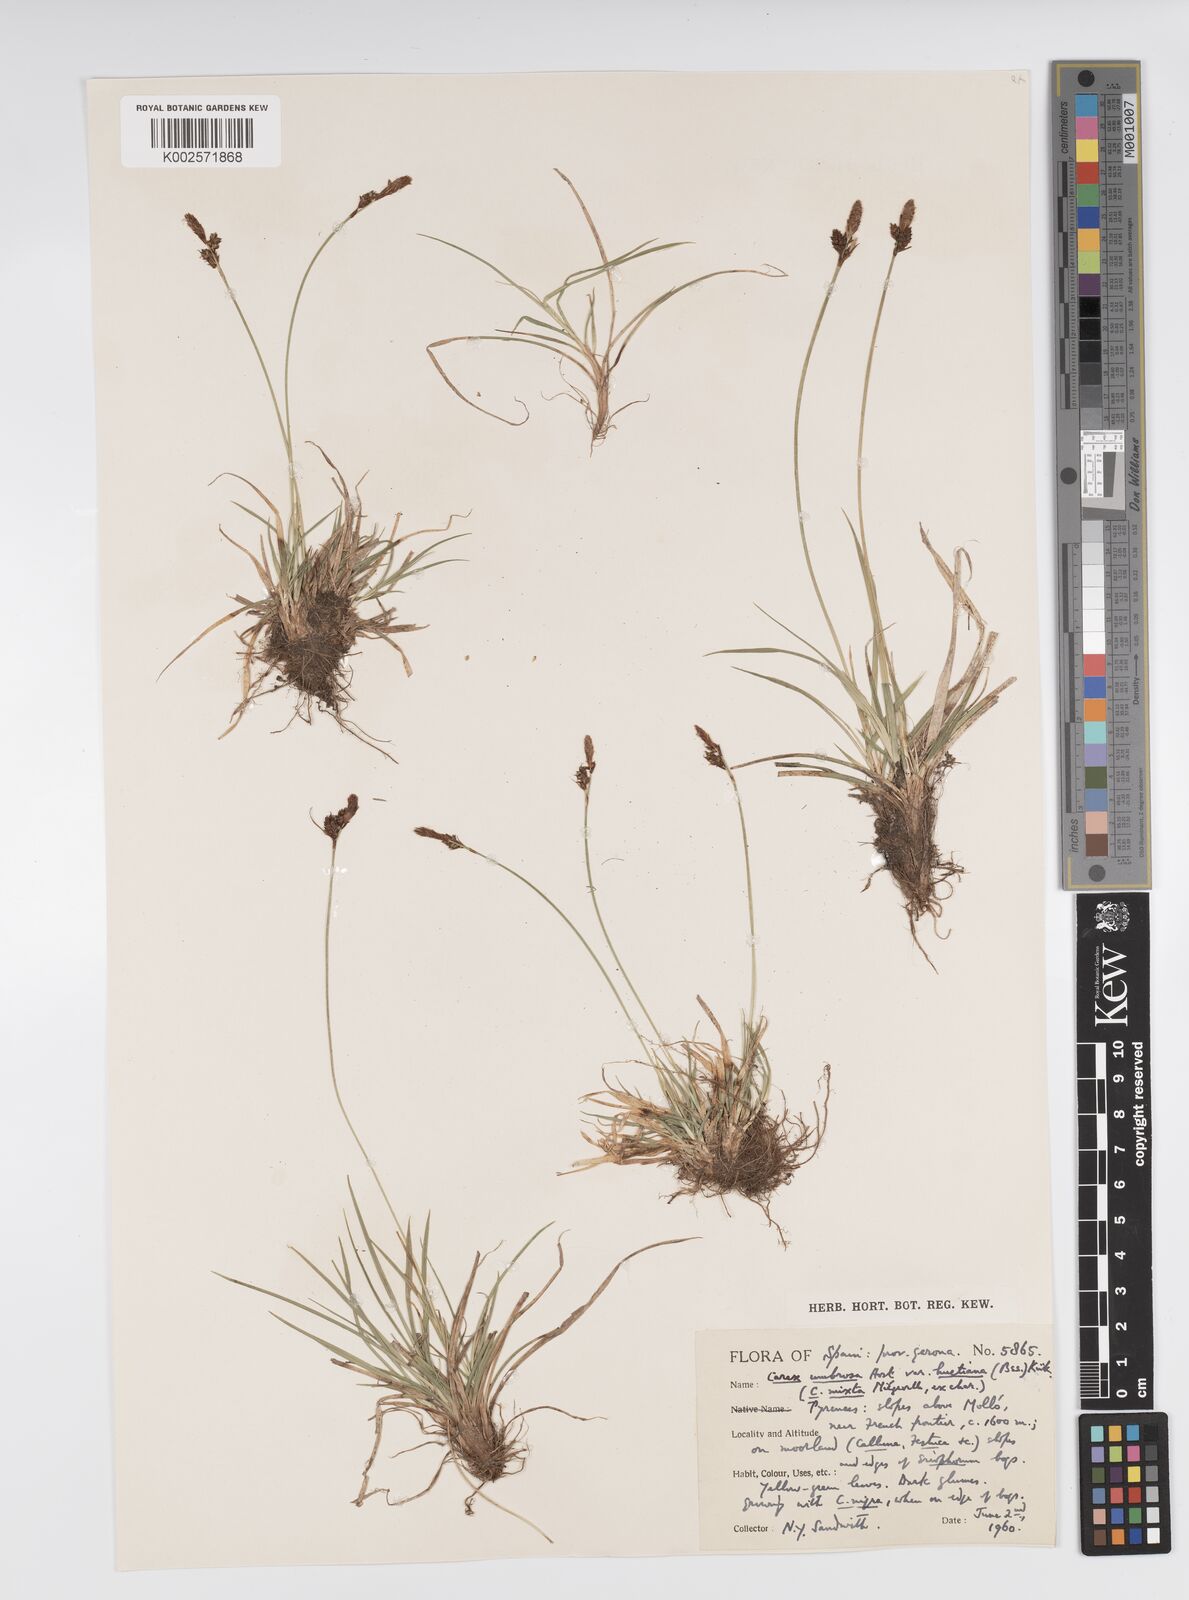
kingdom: Plantae
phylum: Tracheophyta
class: Liliopsida
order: Poales
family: Cyperaceae
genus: Carex
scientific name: Carex umbrosa
